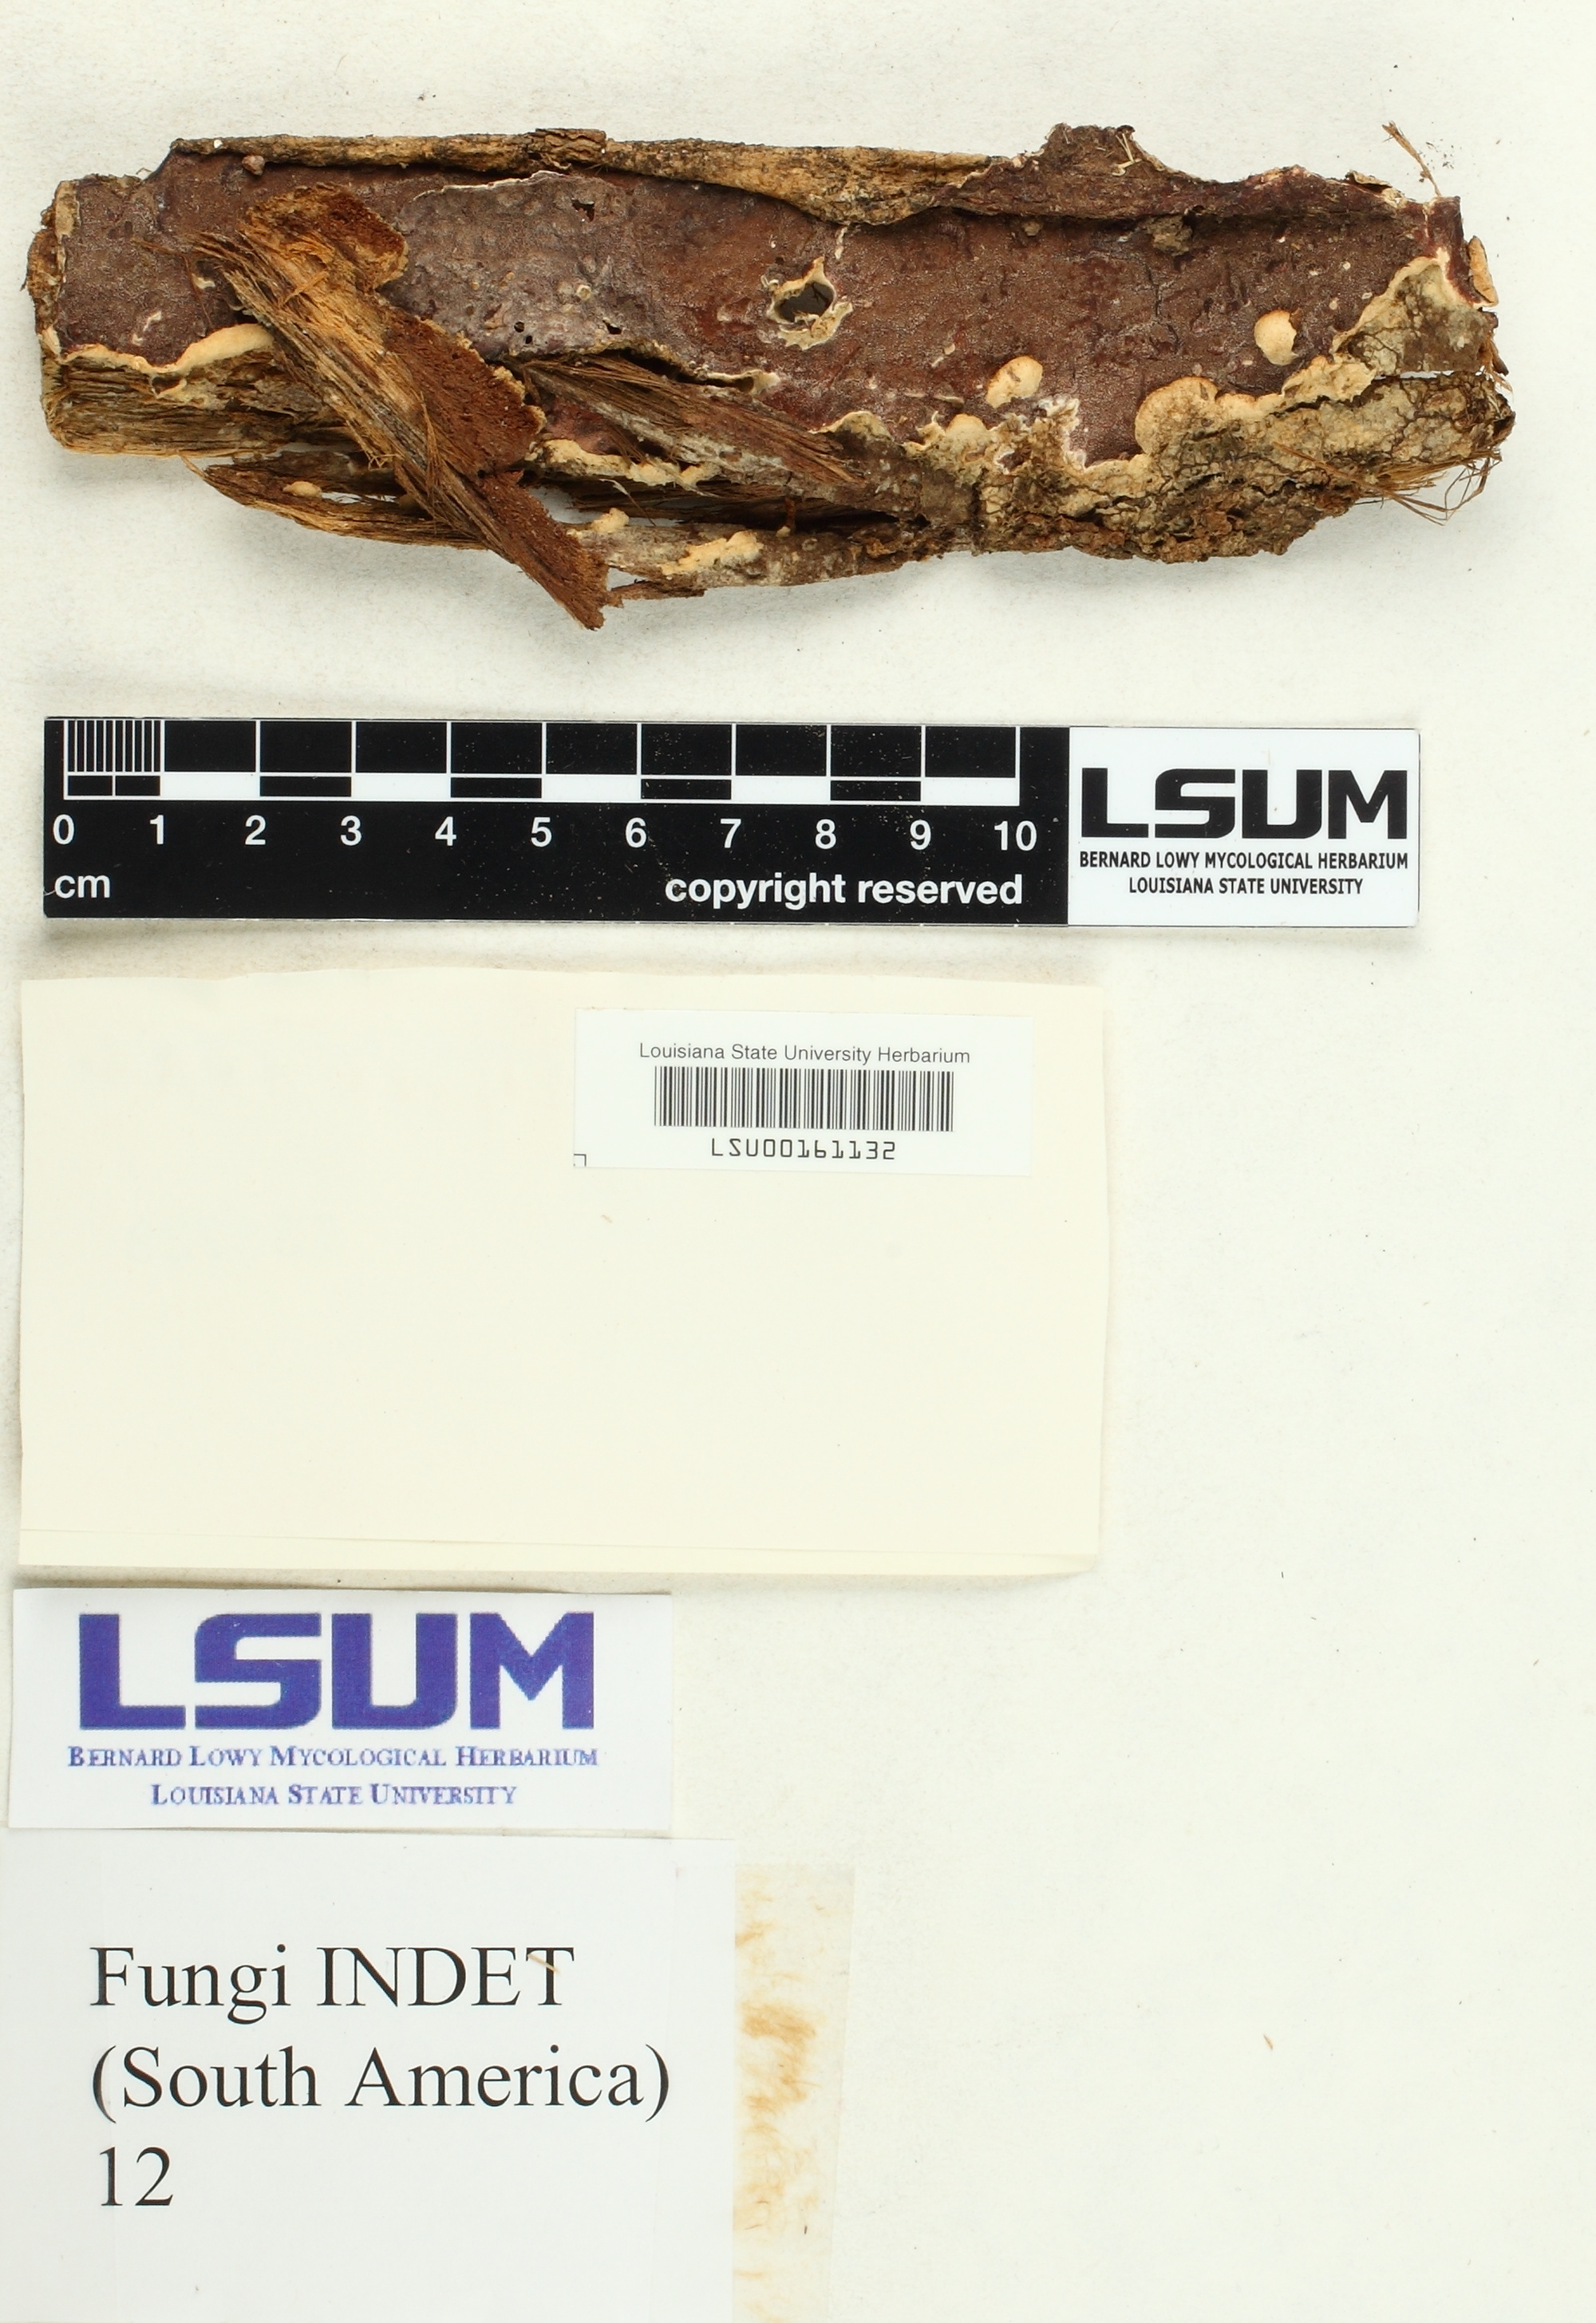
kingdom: Fungi
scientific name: Fungi
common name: Fungi
